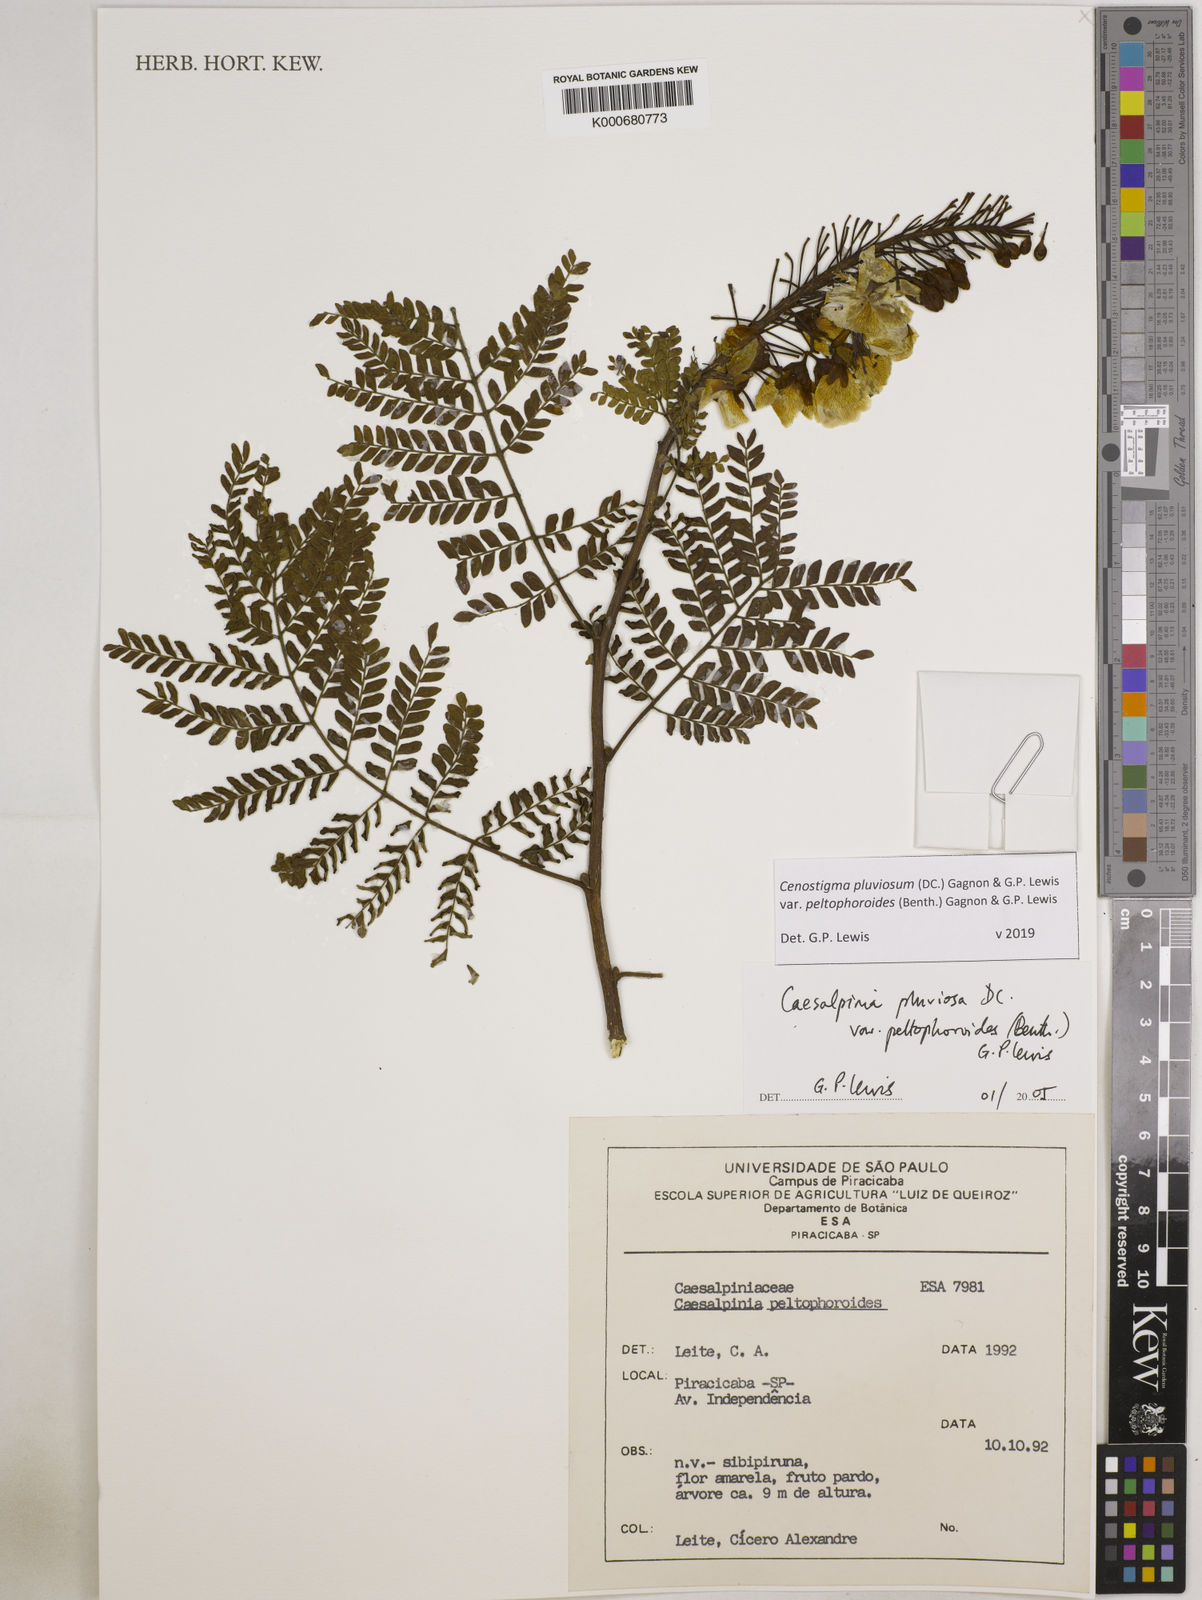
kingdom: Plantae
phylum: Tracheophyta
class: Magnoliopsida
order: Fabales
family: Fabaceae
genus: Cenostigma
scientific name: Cenostigma pluviosum
